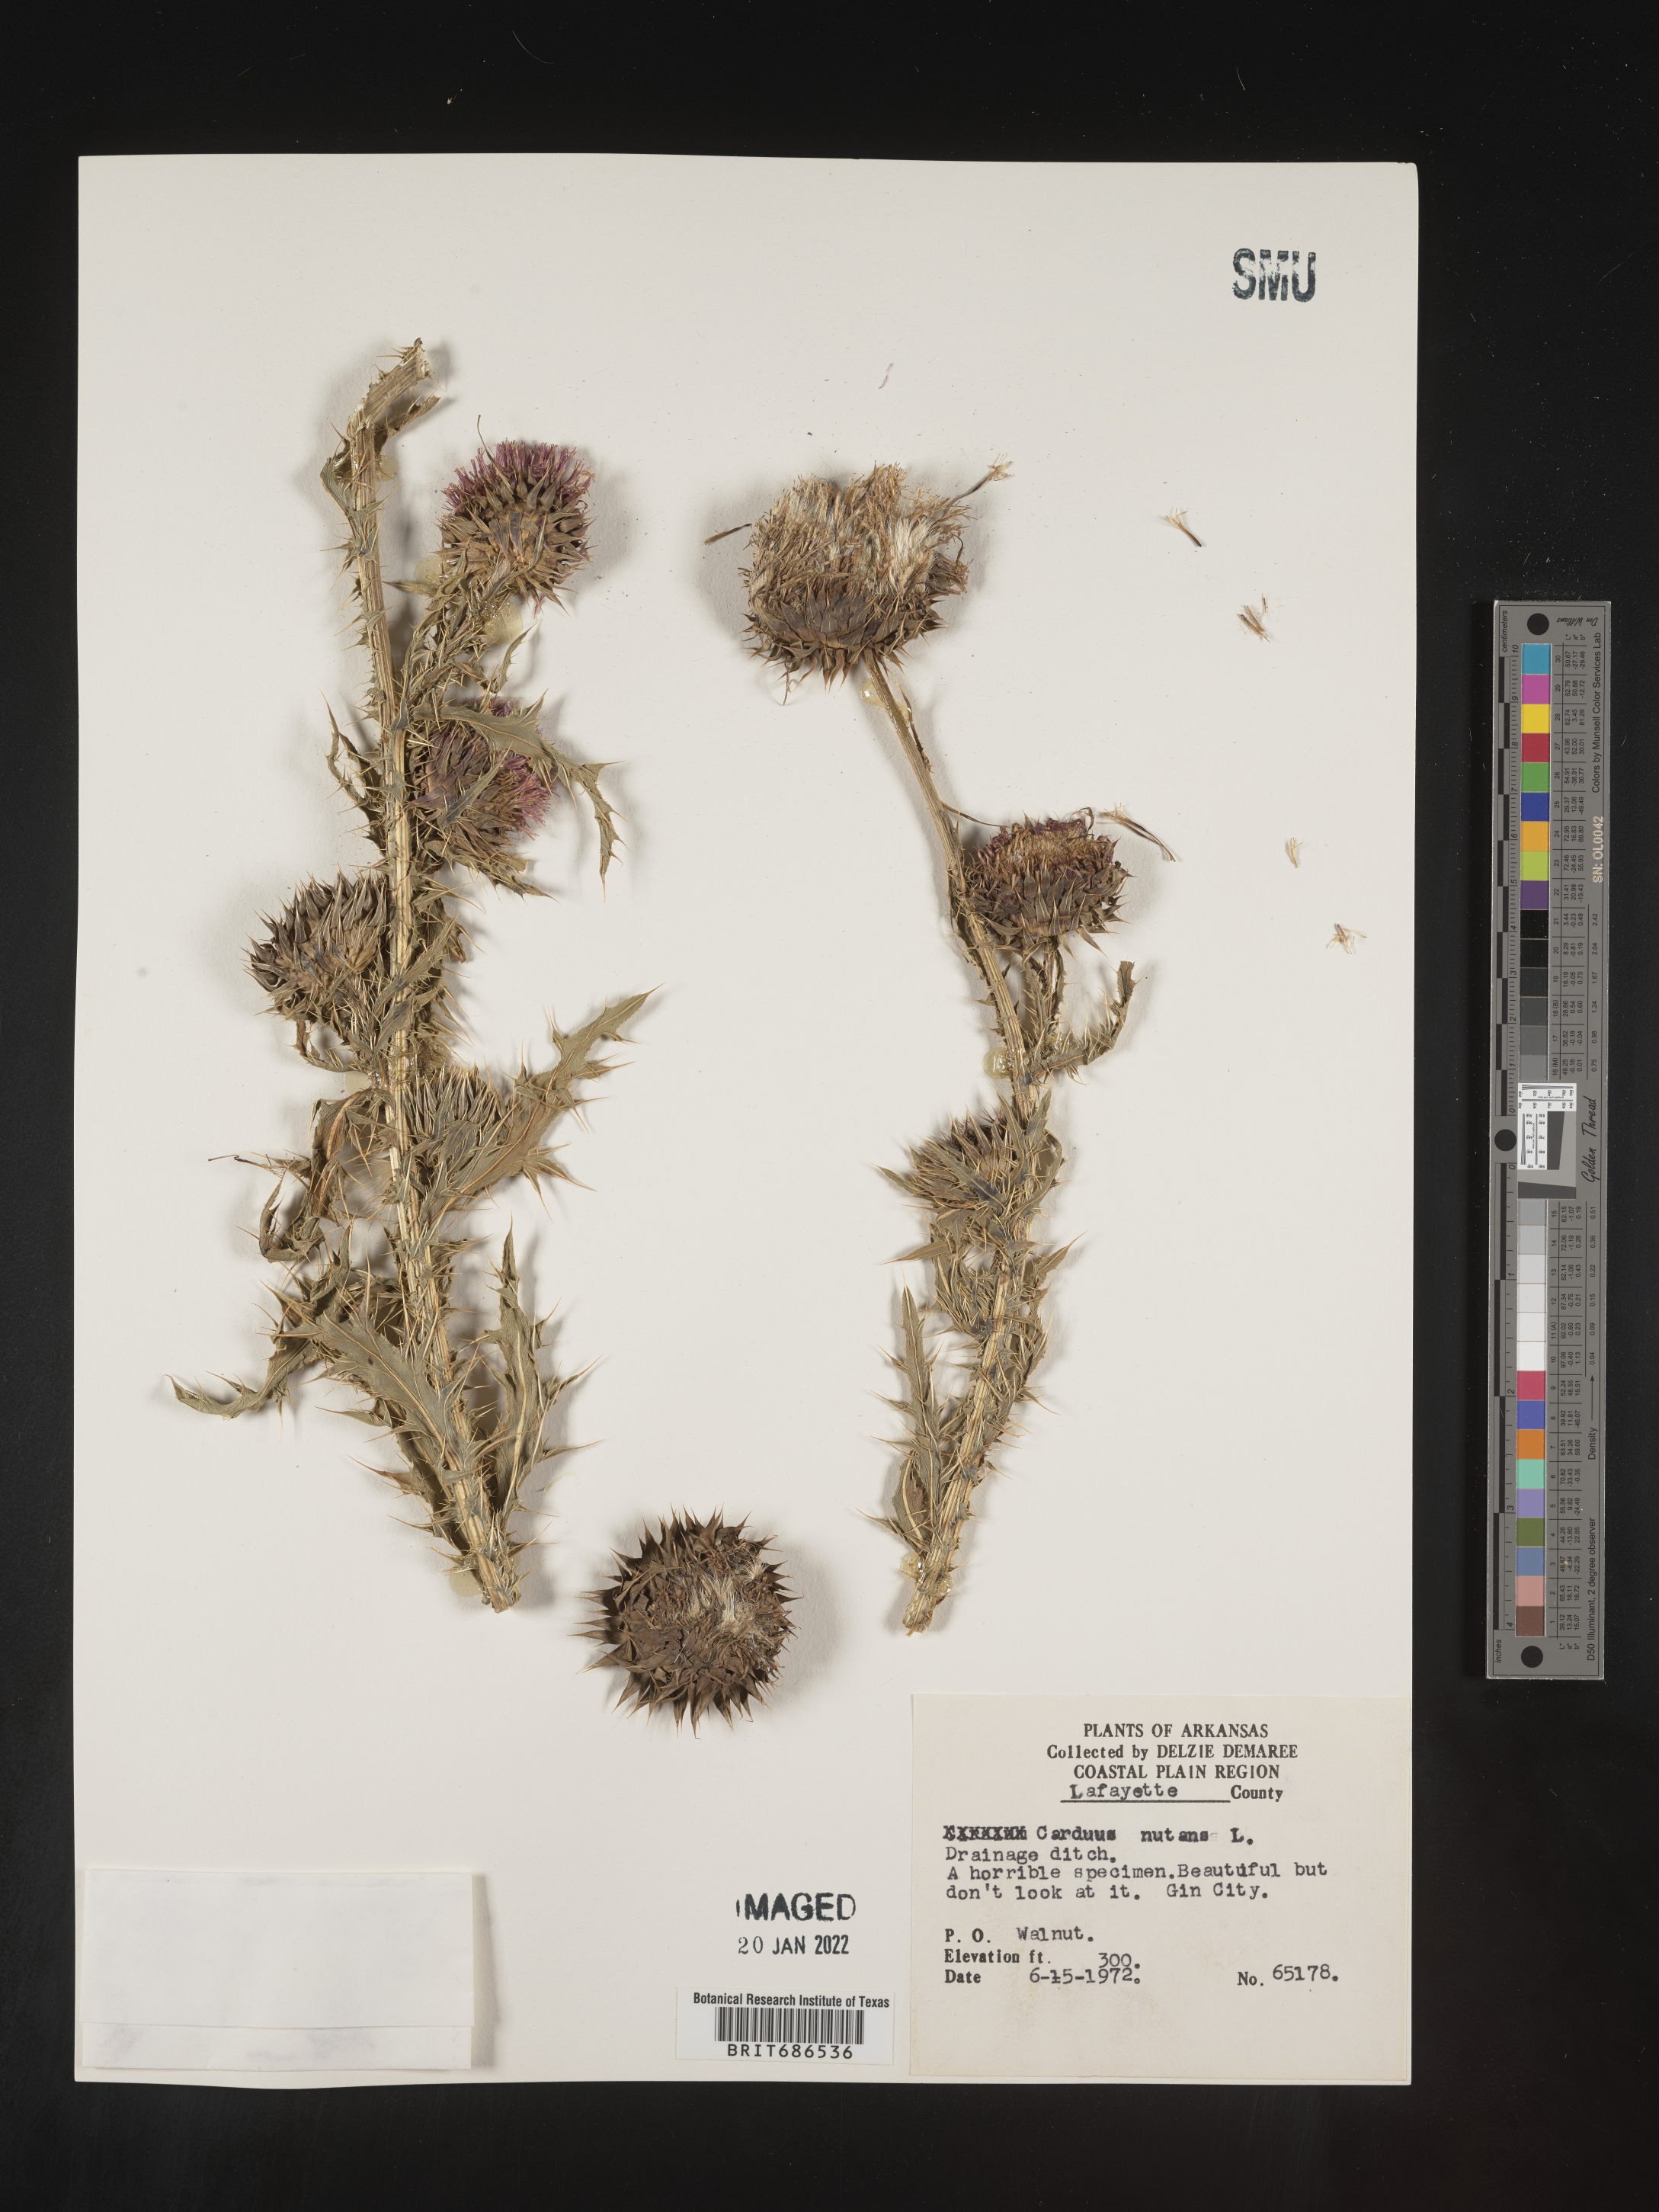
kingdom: Plantae
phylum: Tracheophyta
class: Magnoliopsida
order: Asterales
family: Asteraceae
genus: Carduus
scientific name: Carduus nutans
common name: Musk thistle
